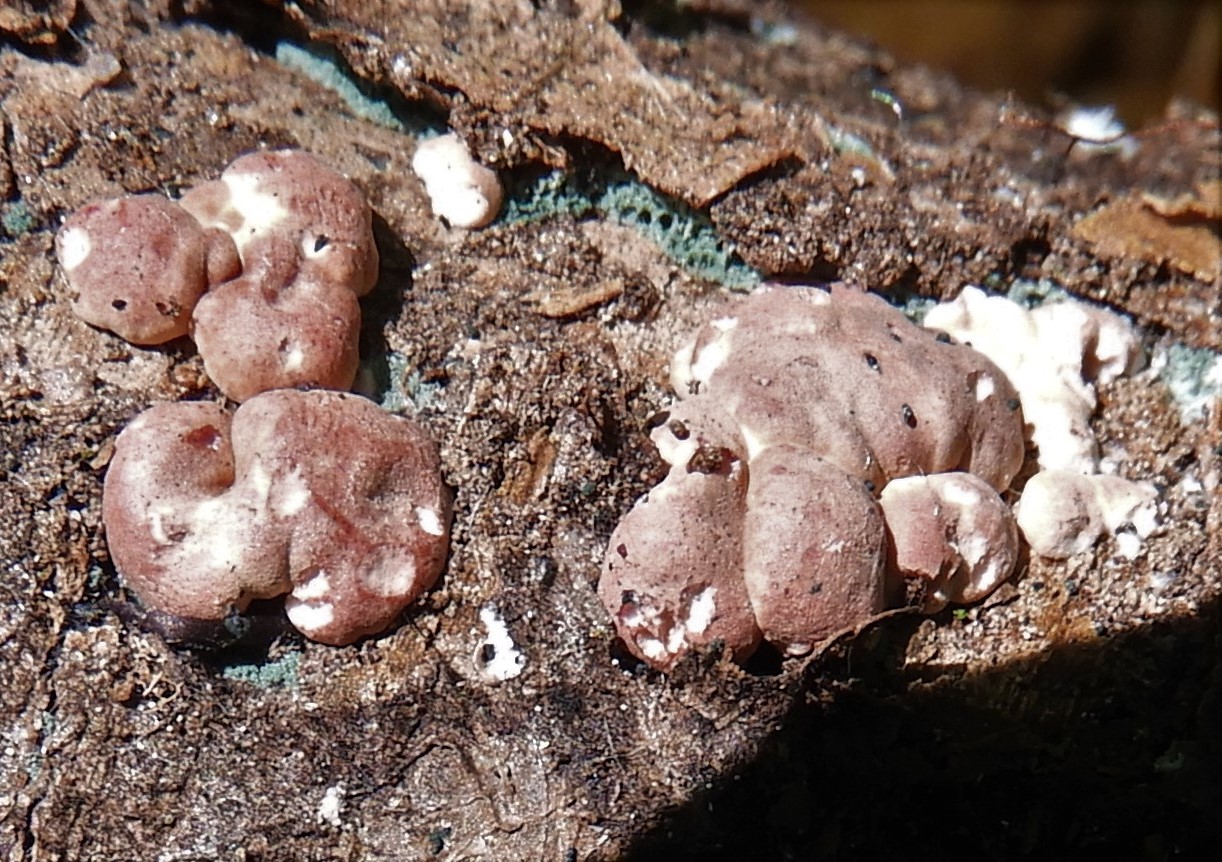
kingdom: Fungi
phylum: Ascomycota
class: Sordariomycetes
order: Hypocreales
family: Hypocreaceae
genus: Trichoderma
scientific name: Trichoderma europaeum
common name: rosabrun kødkerne
